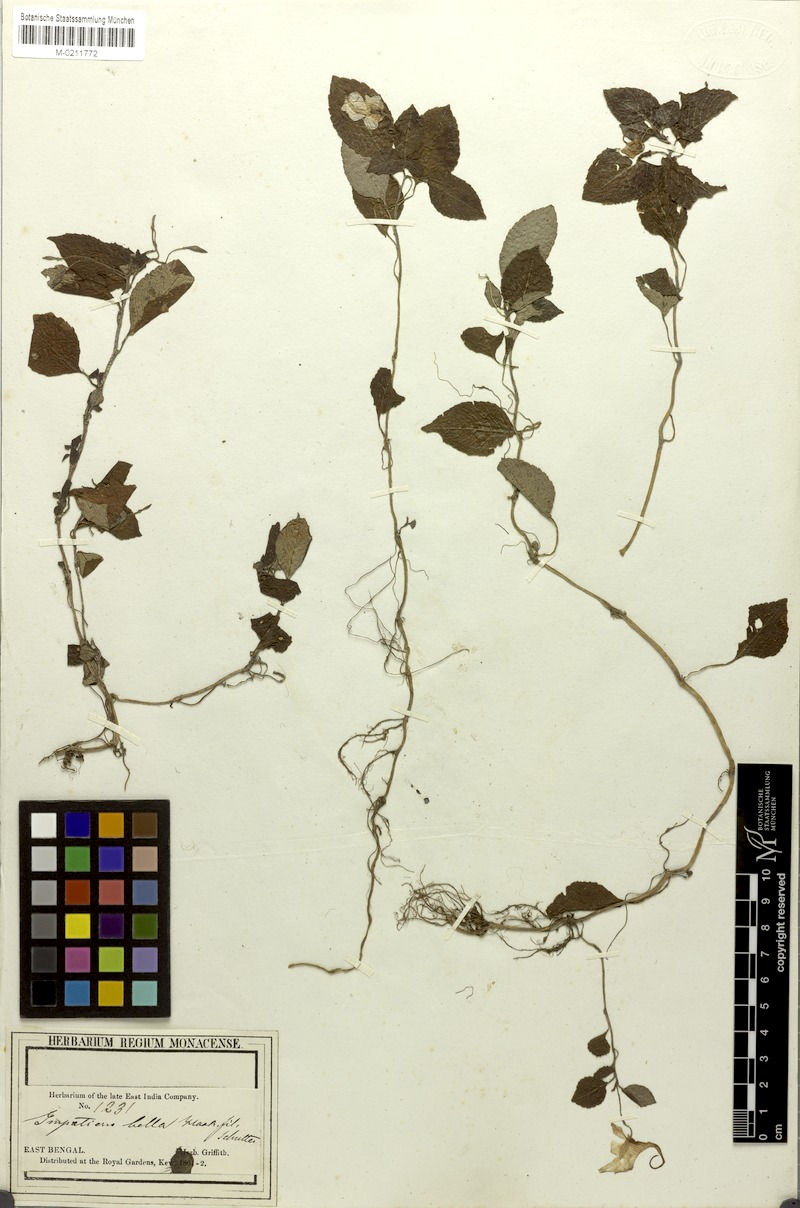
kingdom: Plantae
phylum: Tracheophyta
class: Magnoliopsida
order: Ericales
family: Balsaminaceae
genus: Impatiens
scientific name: Impatiens porrecta
